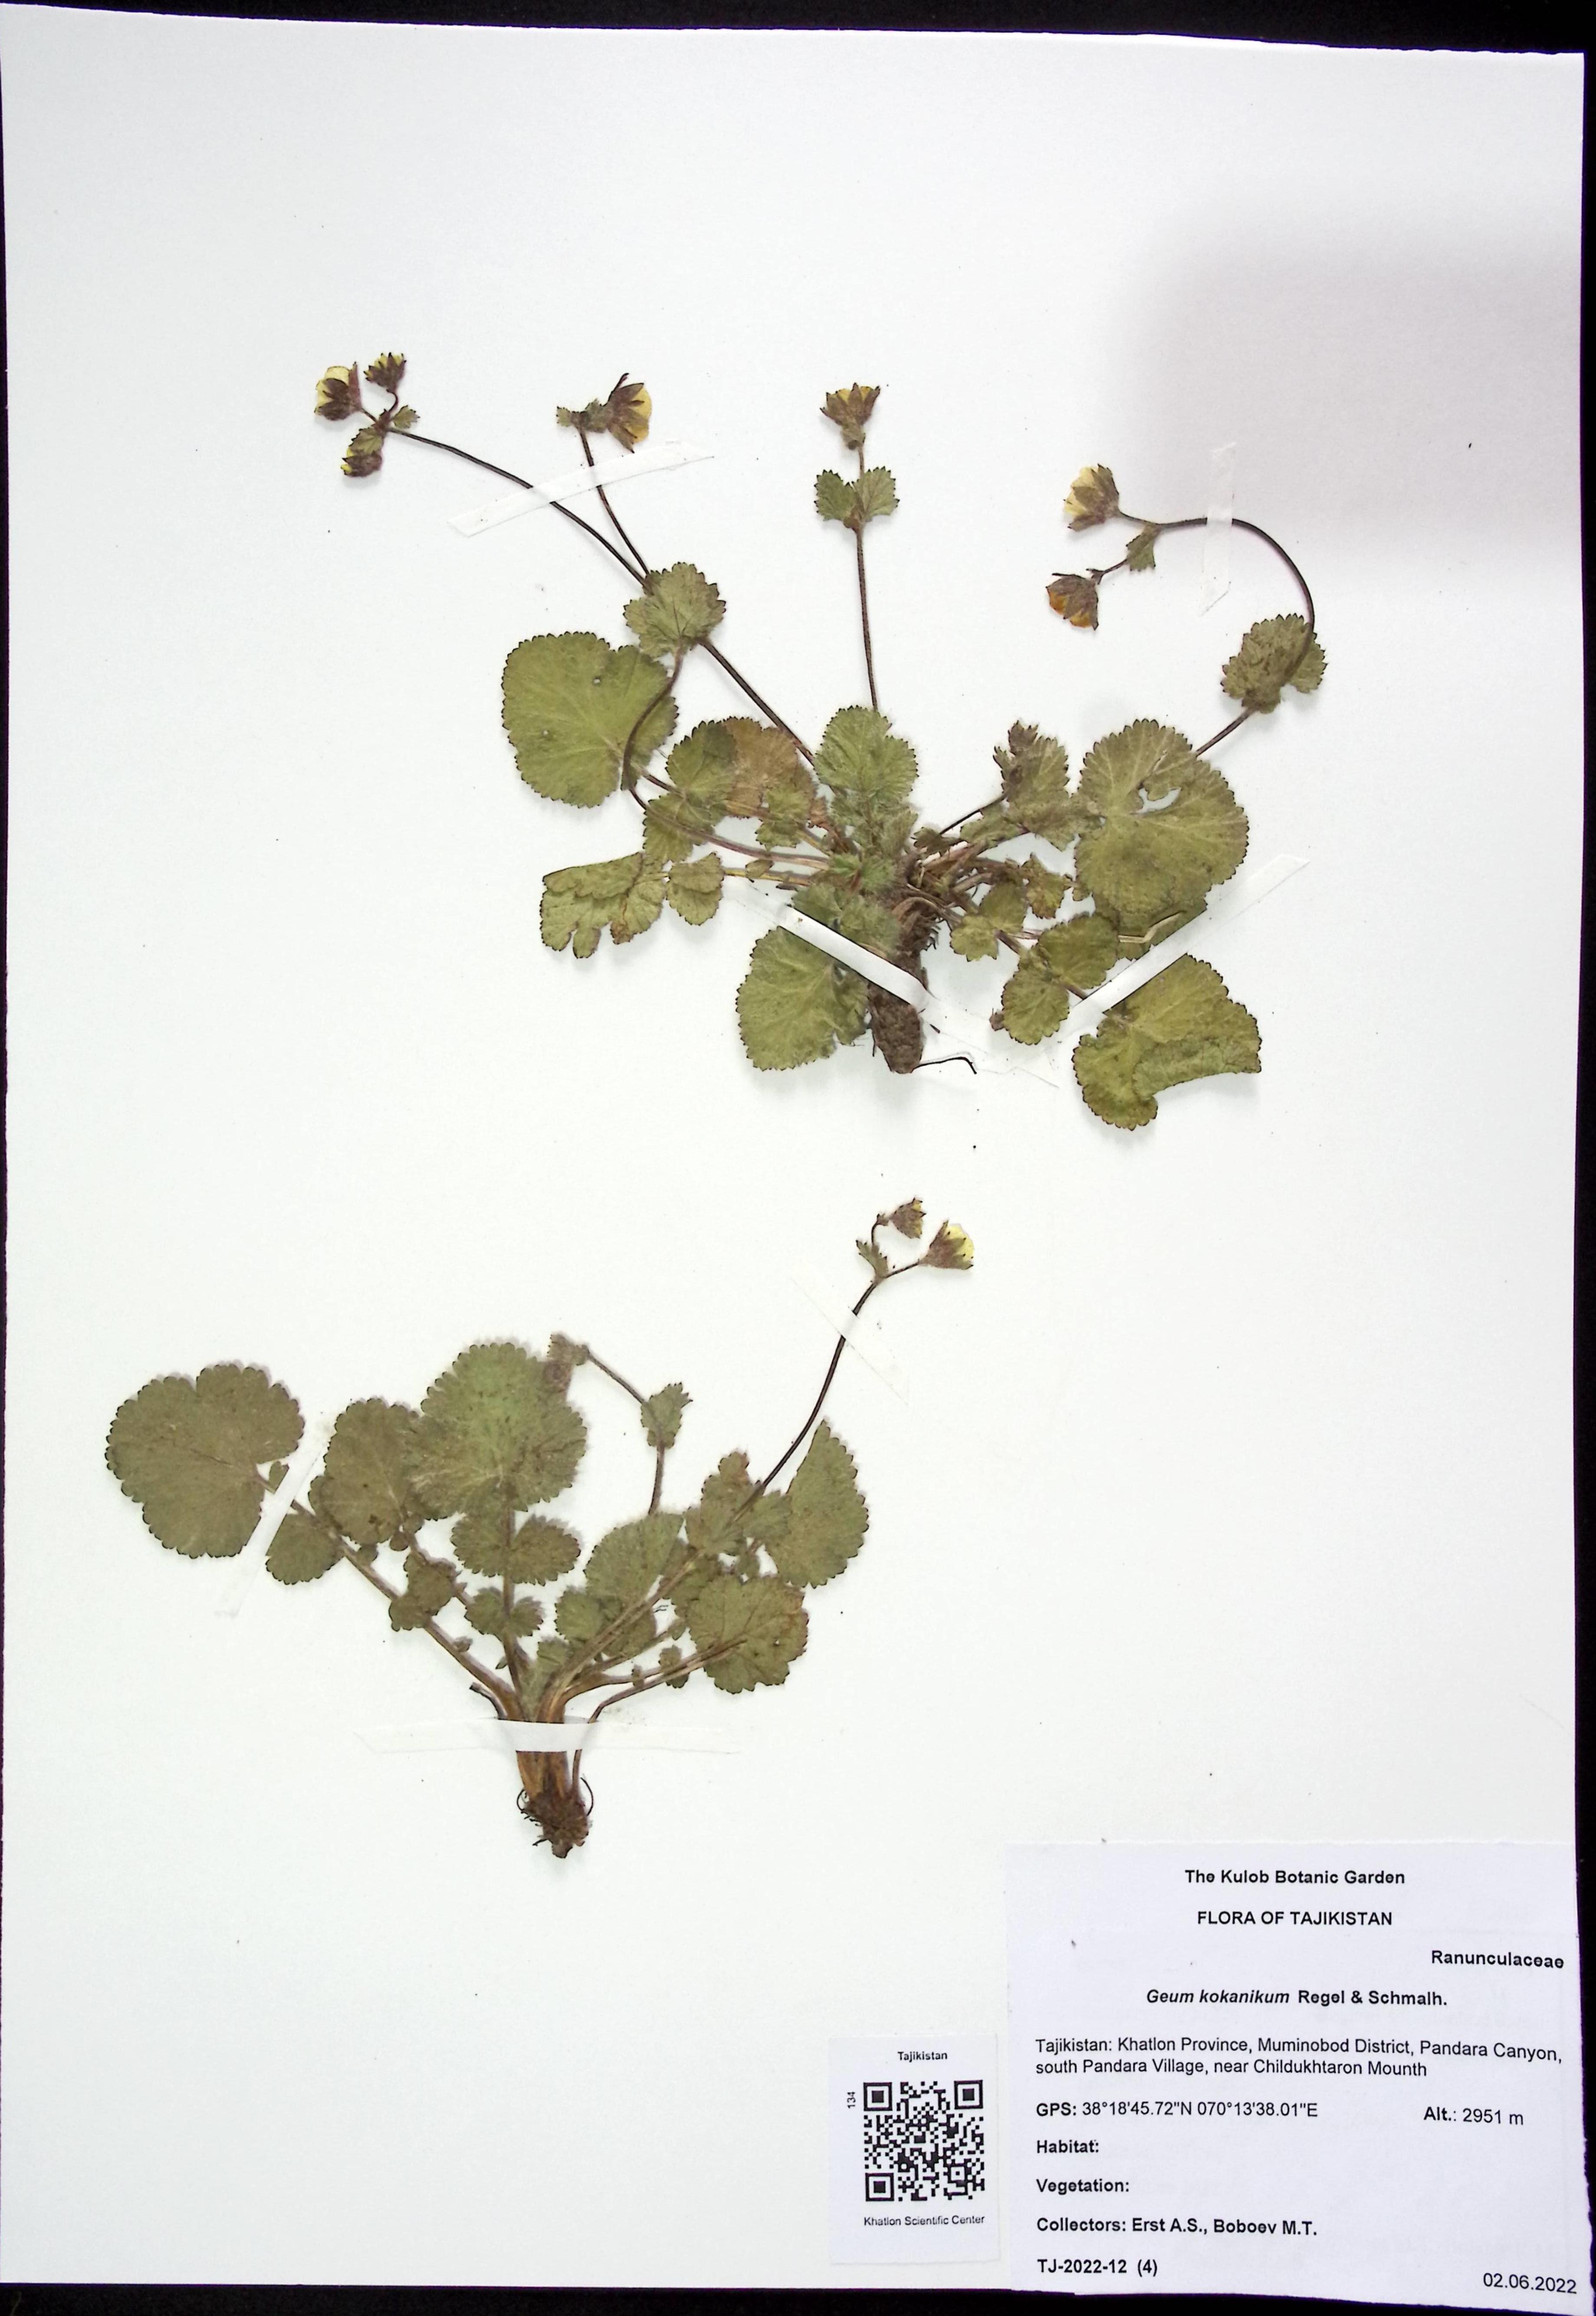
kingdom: Plantae
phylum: Tracheophyta
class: Magnoliopsida
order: Rosales
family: Rosaceae
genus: Geum
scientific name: Geum kokanikum
